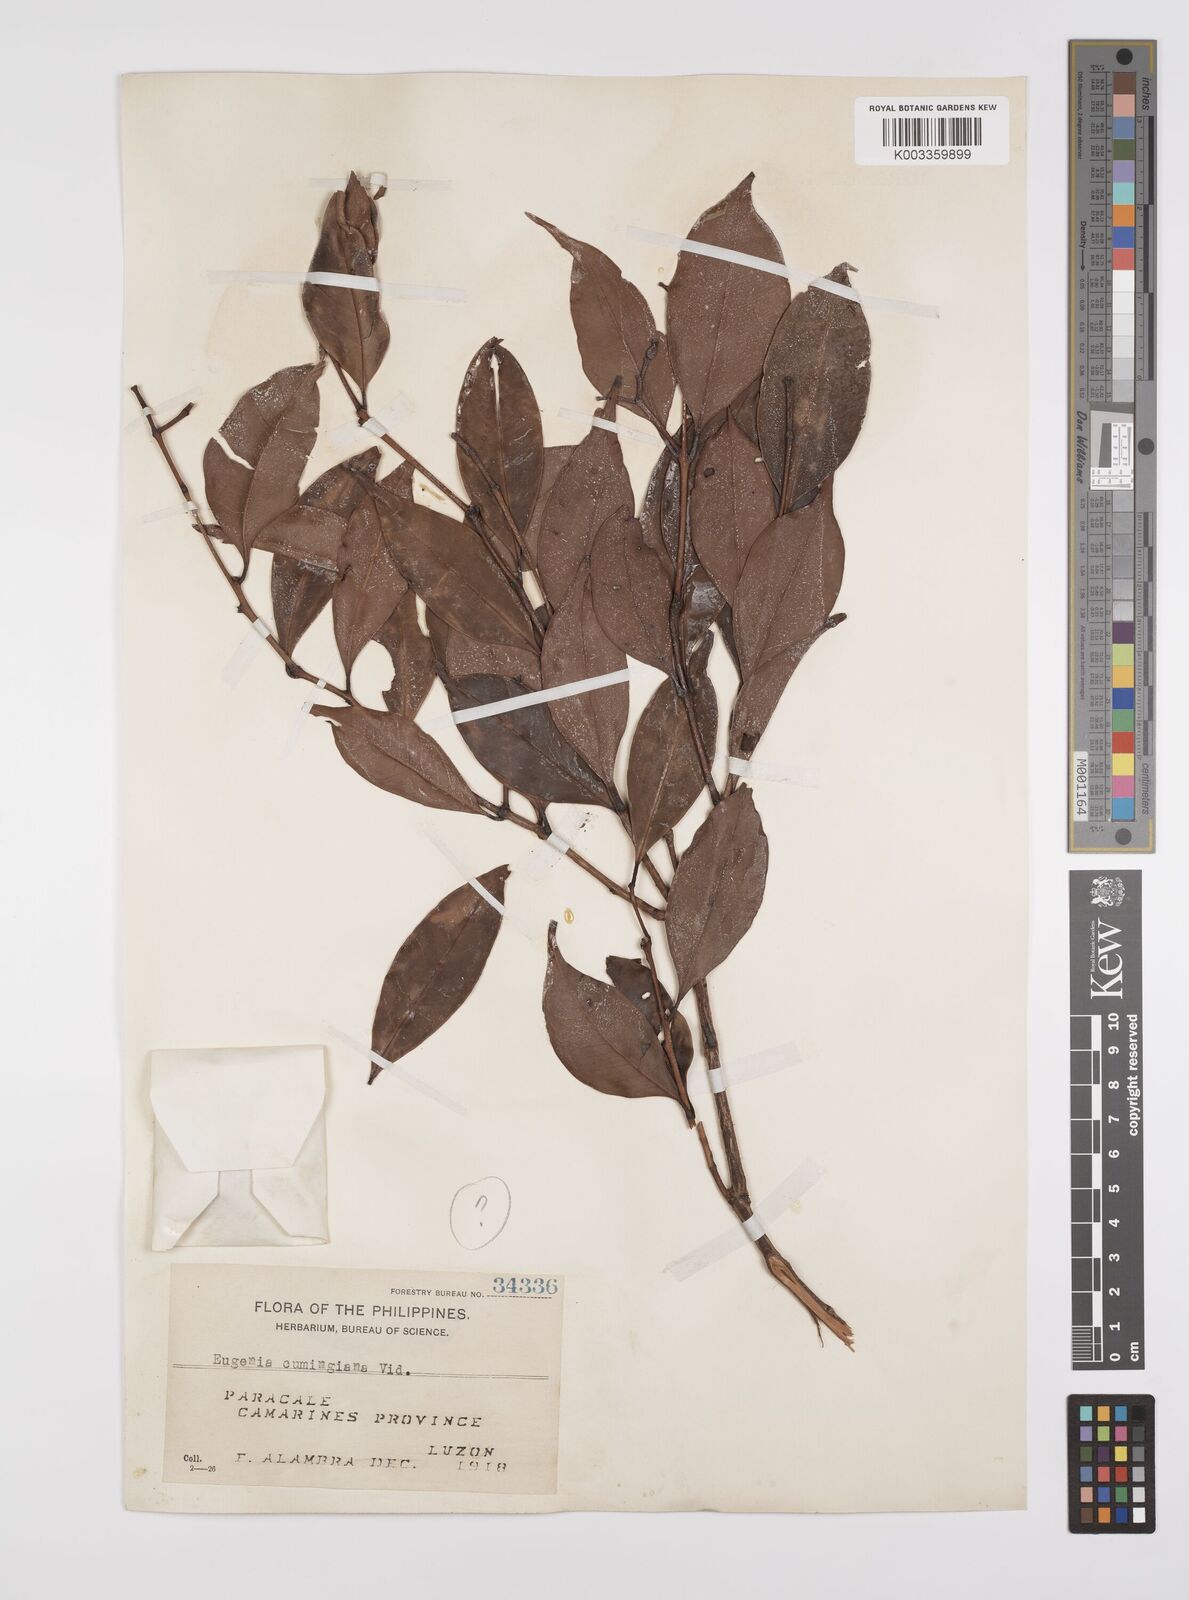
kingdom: Plantae
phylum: Tracheophyta
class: Magnoliopsida
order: Myrtales
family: Myrtaceae
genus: Syzygium
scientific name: Syzygium acuminatissimum
